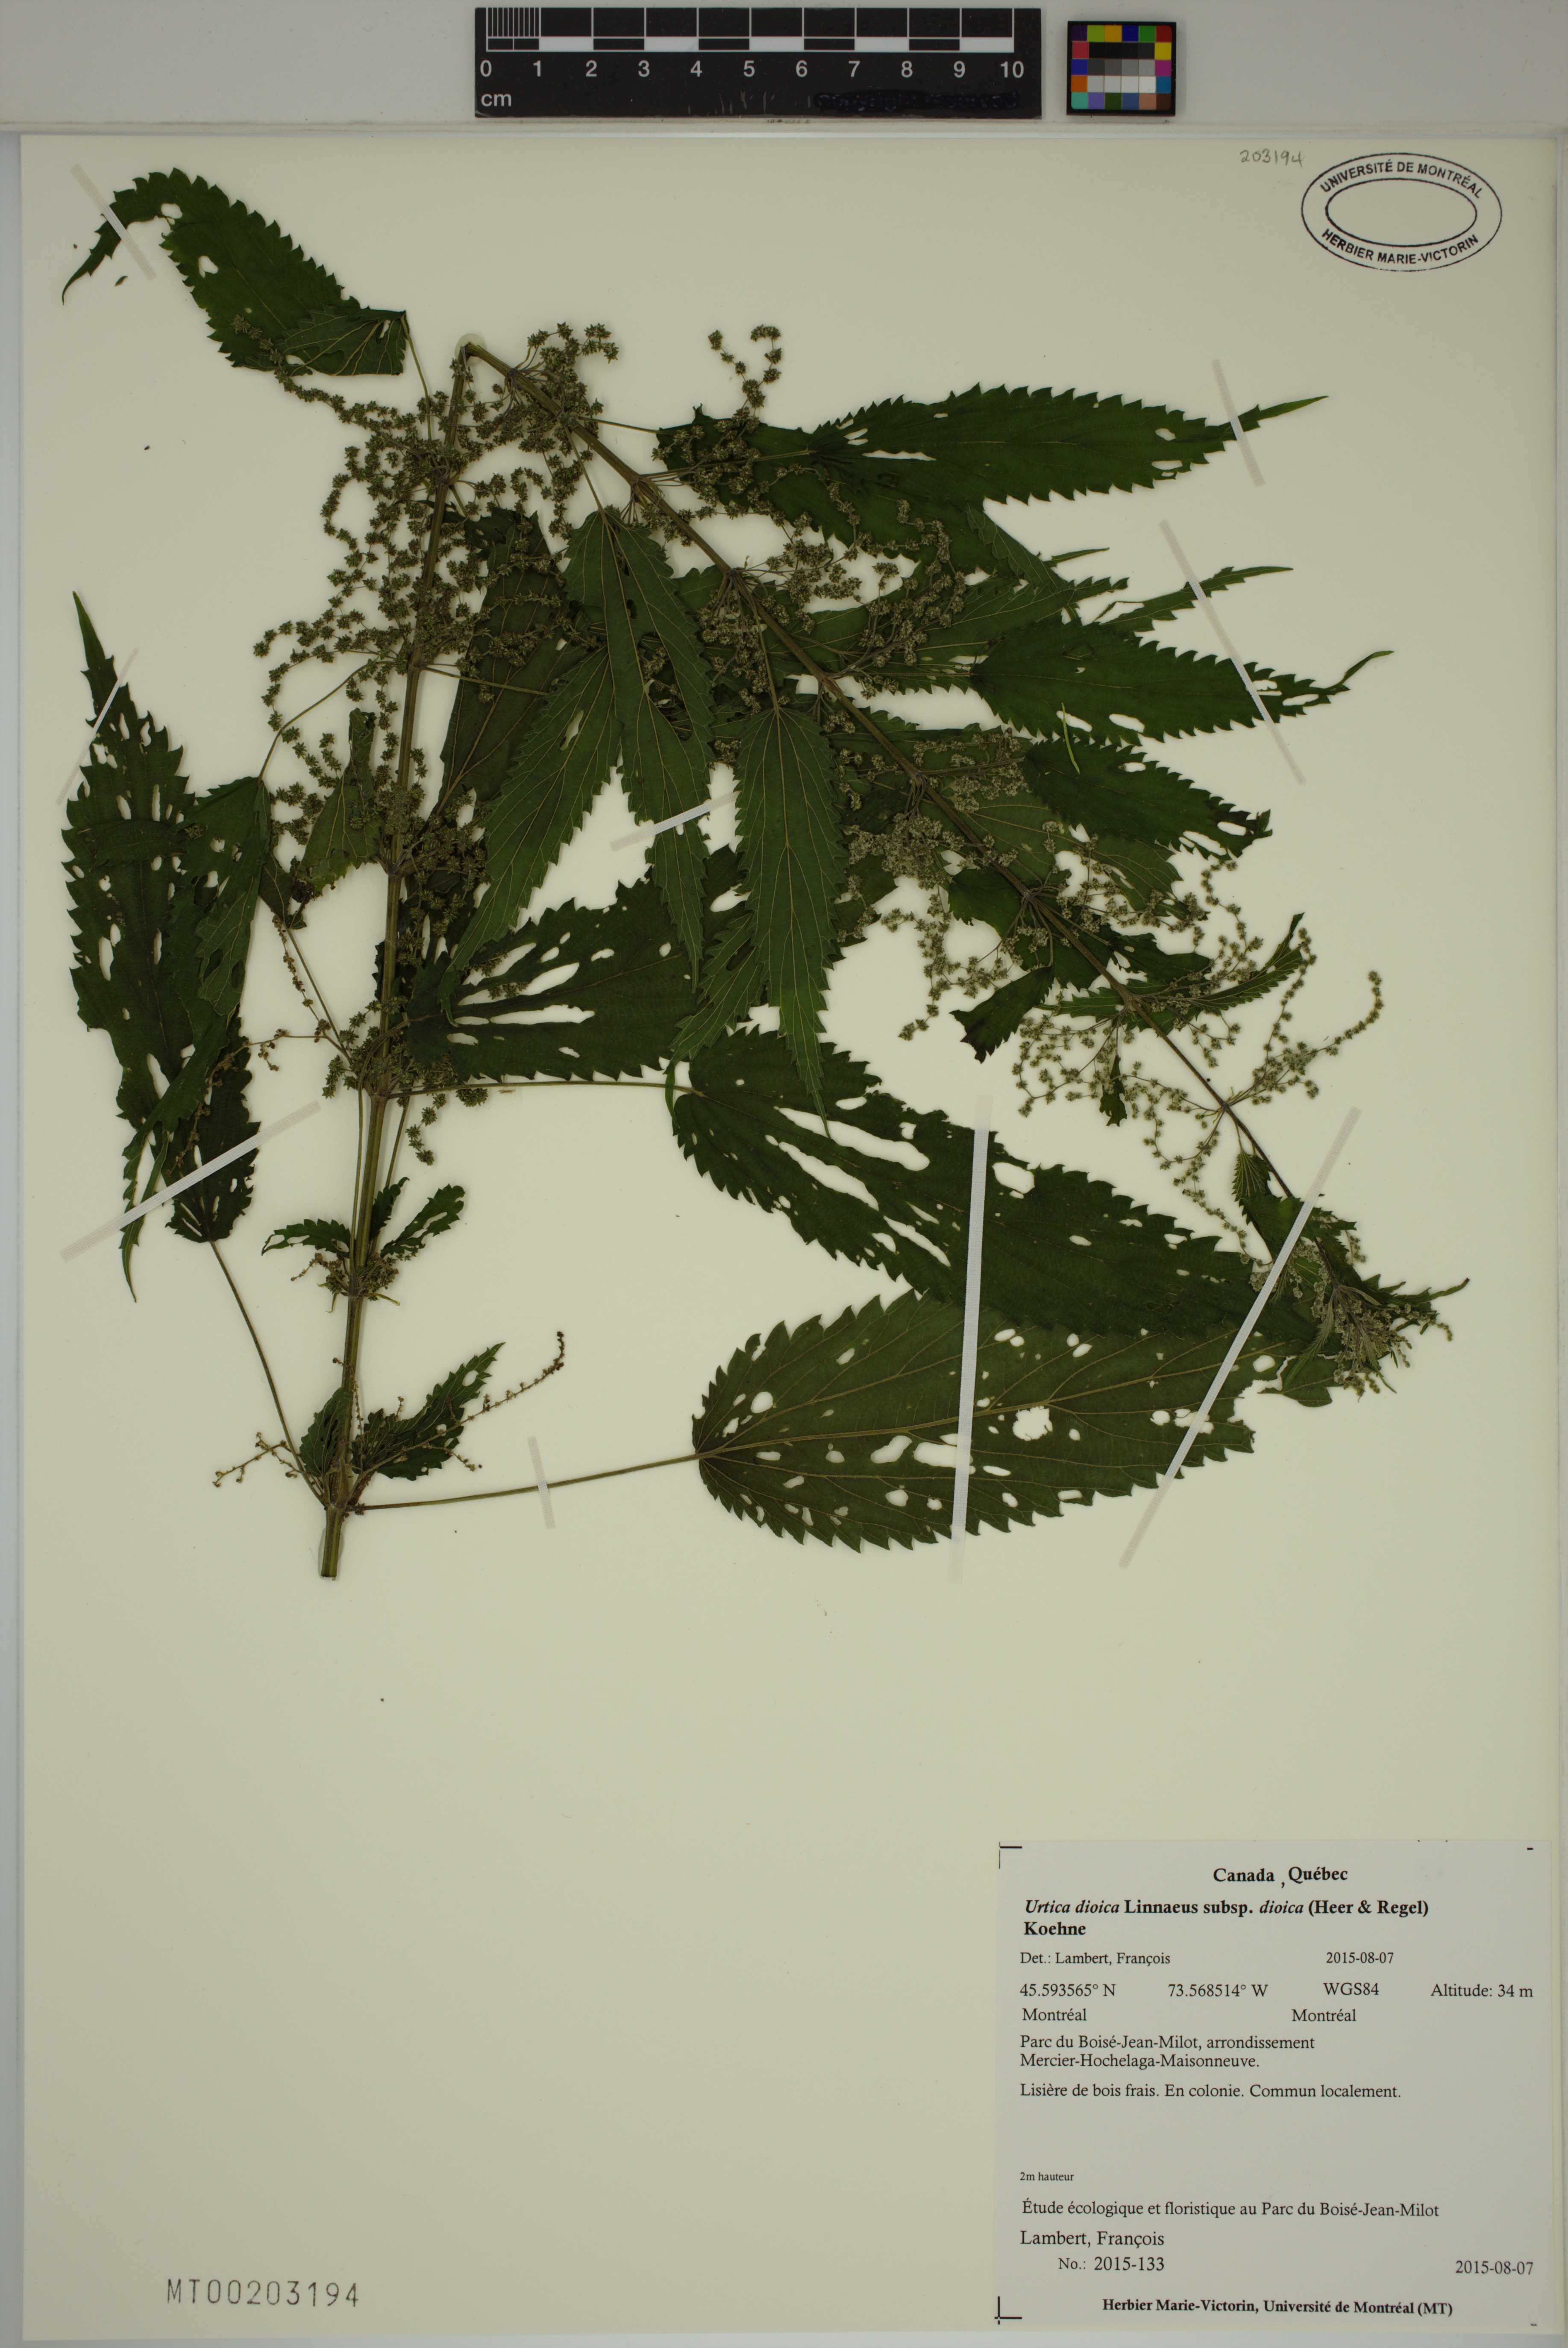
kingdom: Plantae
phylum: Tracheophyta
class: Magnoliopsida
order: Rosales
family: Urticaceae
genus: Urtica
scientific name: Urtica dioica
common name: Common nettle
